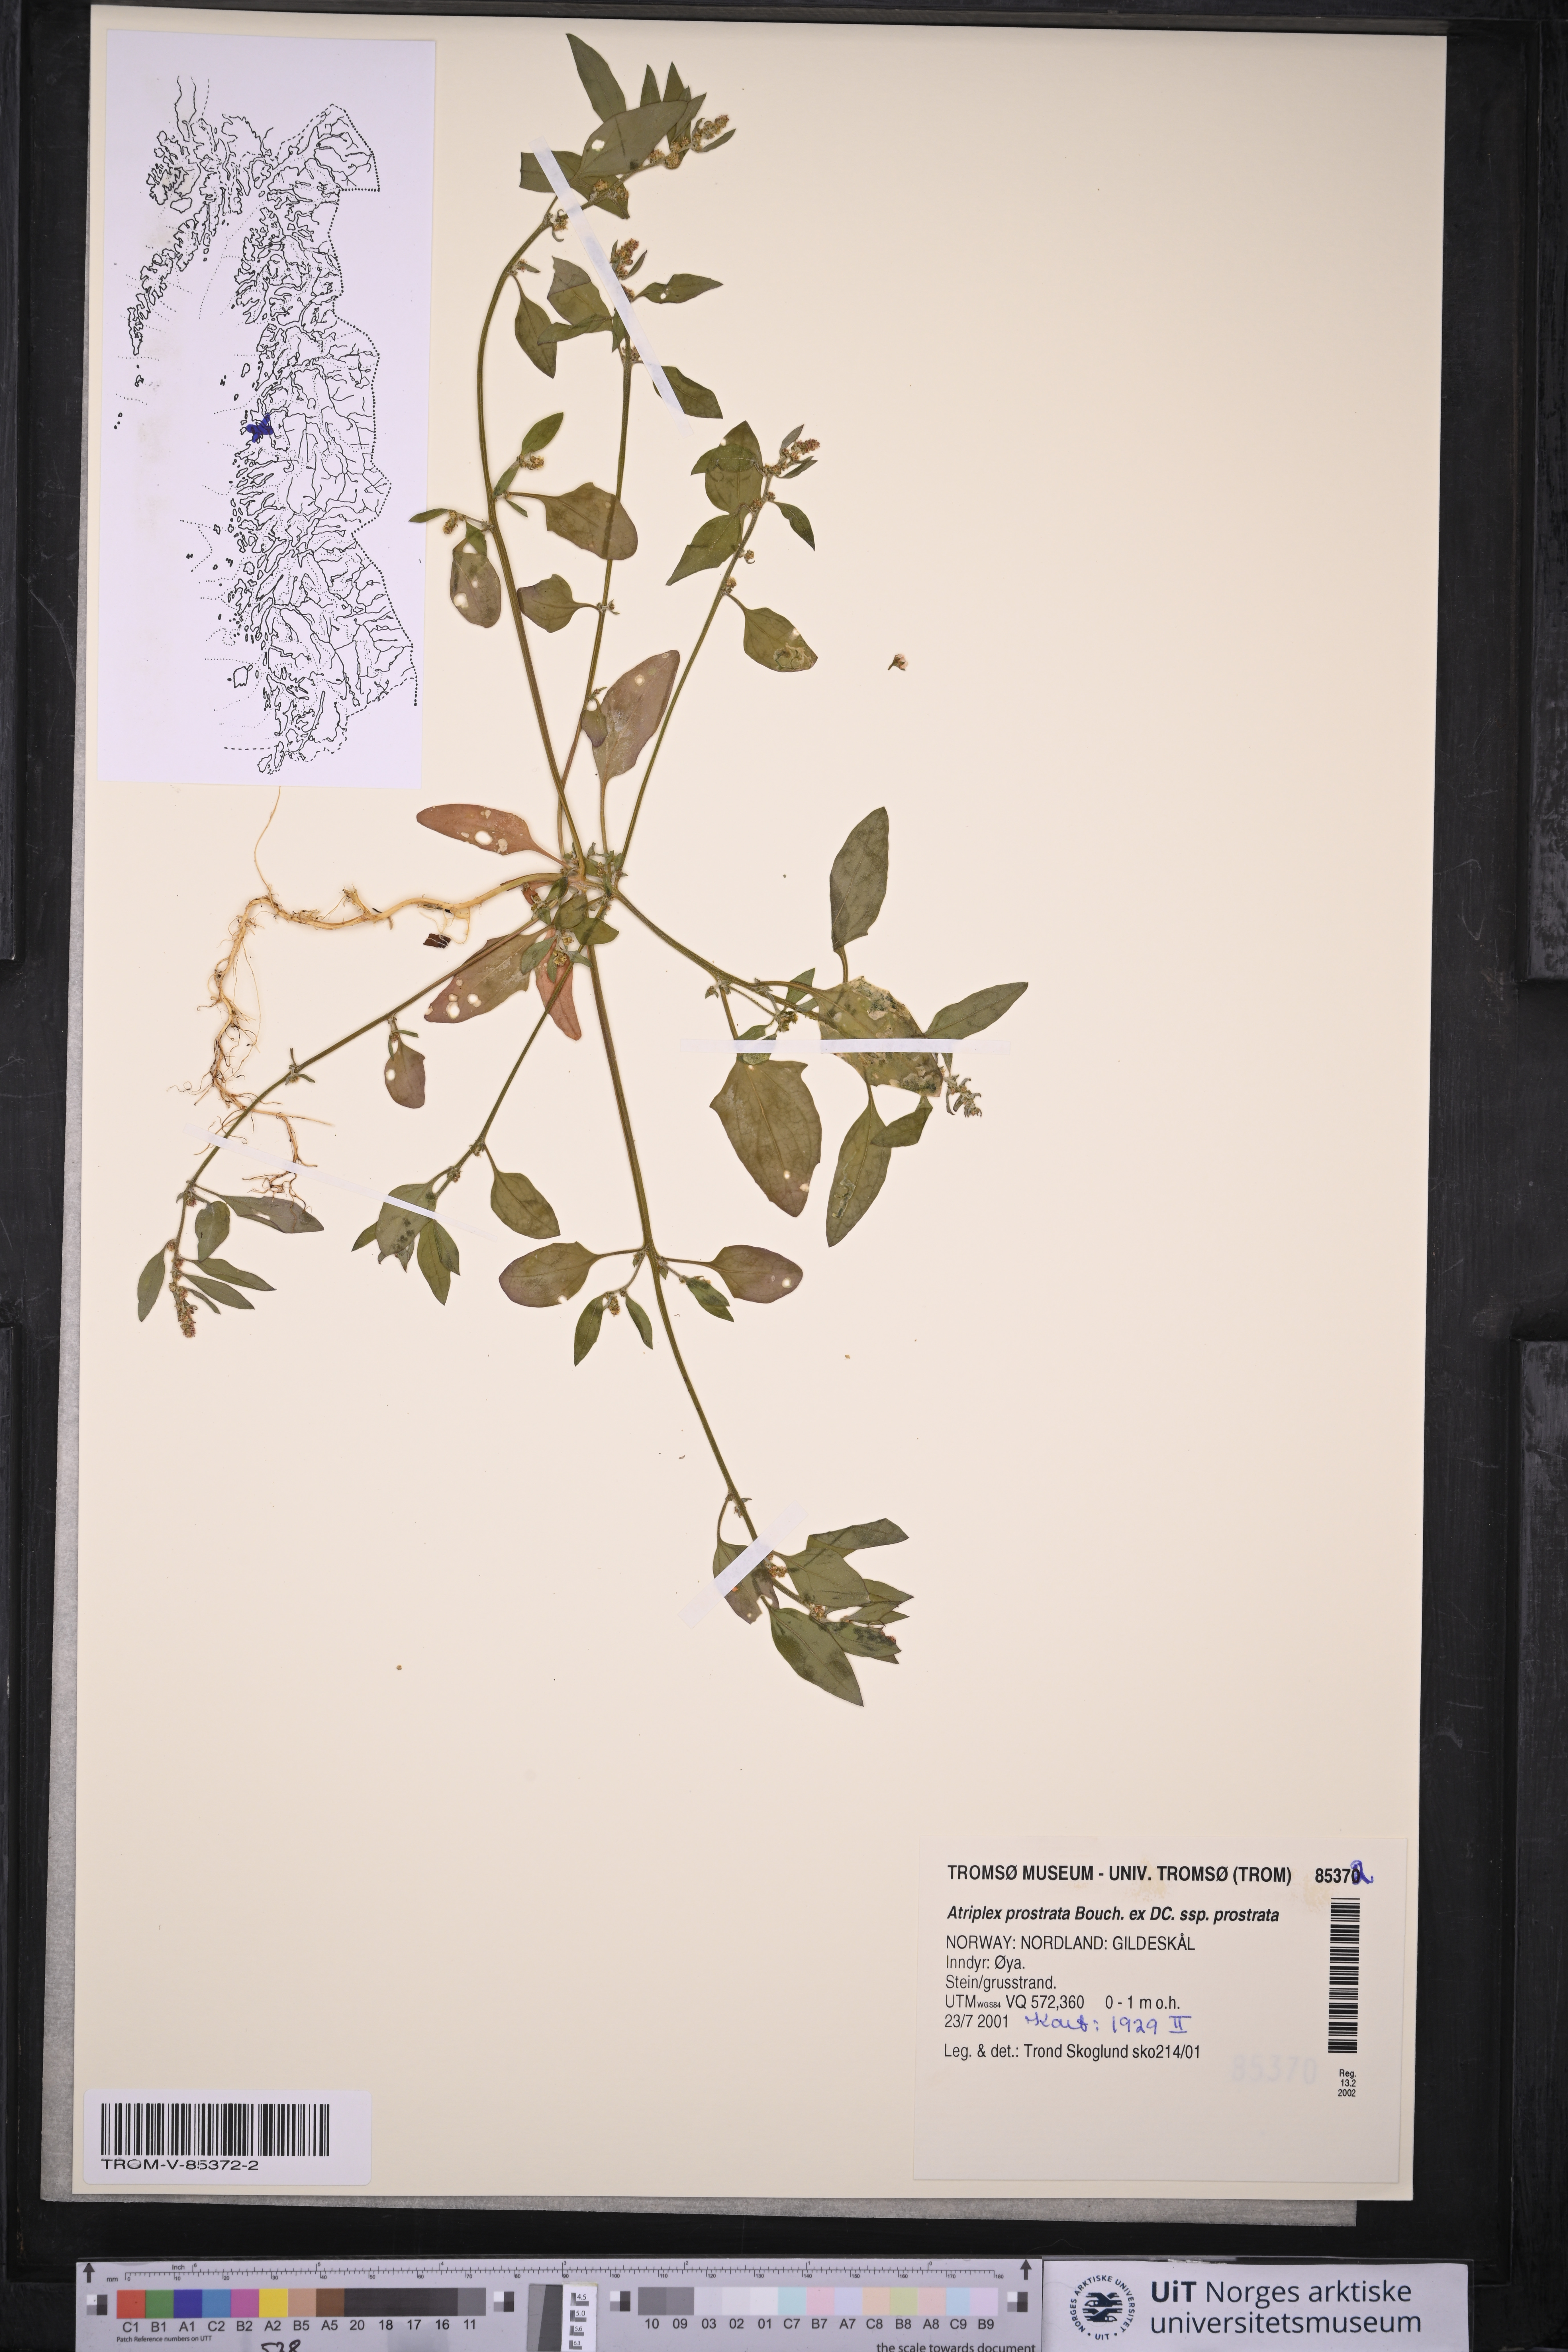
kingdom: Plantae
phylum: Tracheophyta
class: Magnoliopsida
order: Caryophyllales
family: Amaranthaceae
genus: Atriplex
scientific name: Atriplex prostrata
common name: Spear-leaved orache
